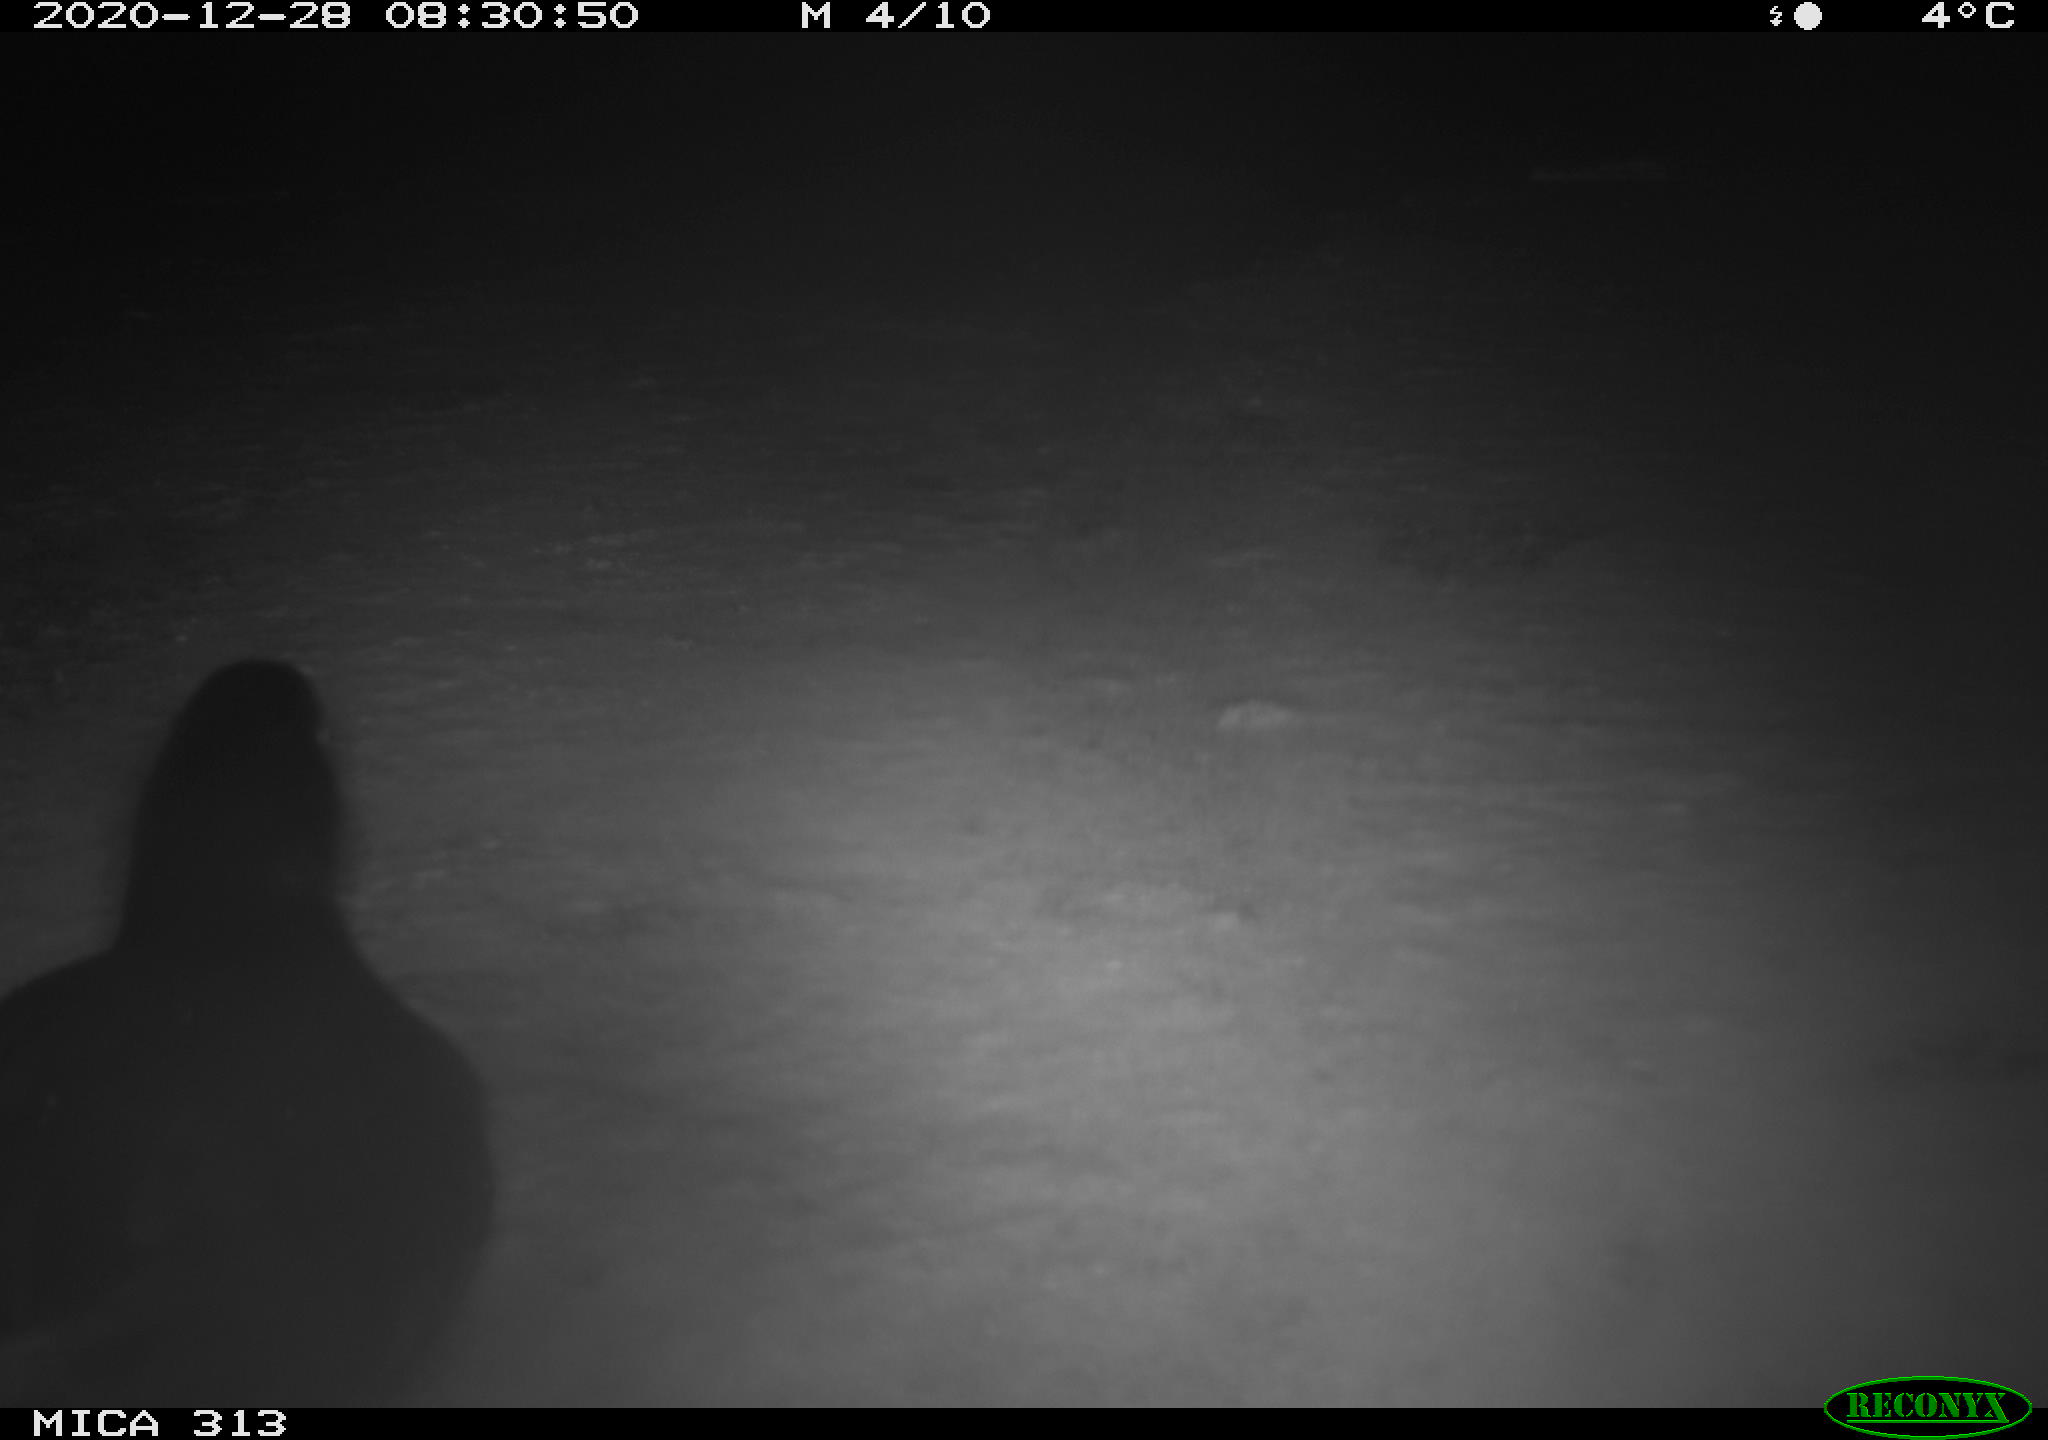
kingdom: Animalia
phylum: Chordata
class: Aves
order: Gruiformes
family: Rallidae
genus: Fulica
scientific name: Fulica atra
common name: Eurasian coot
